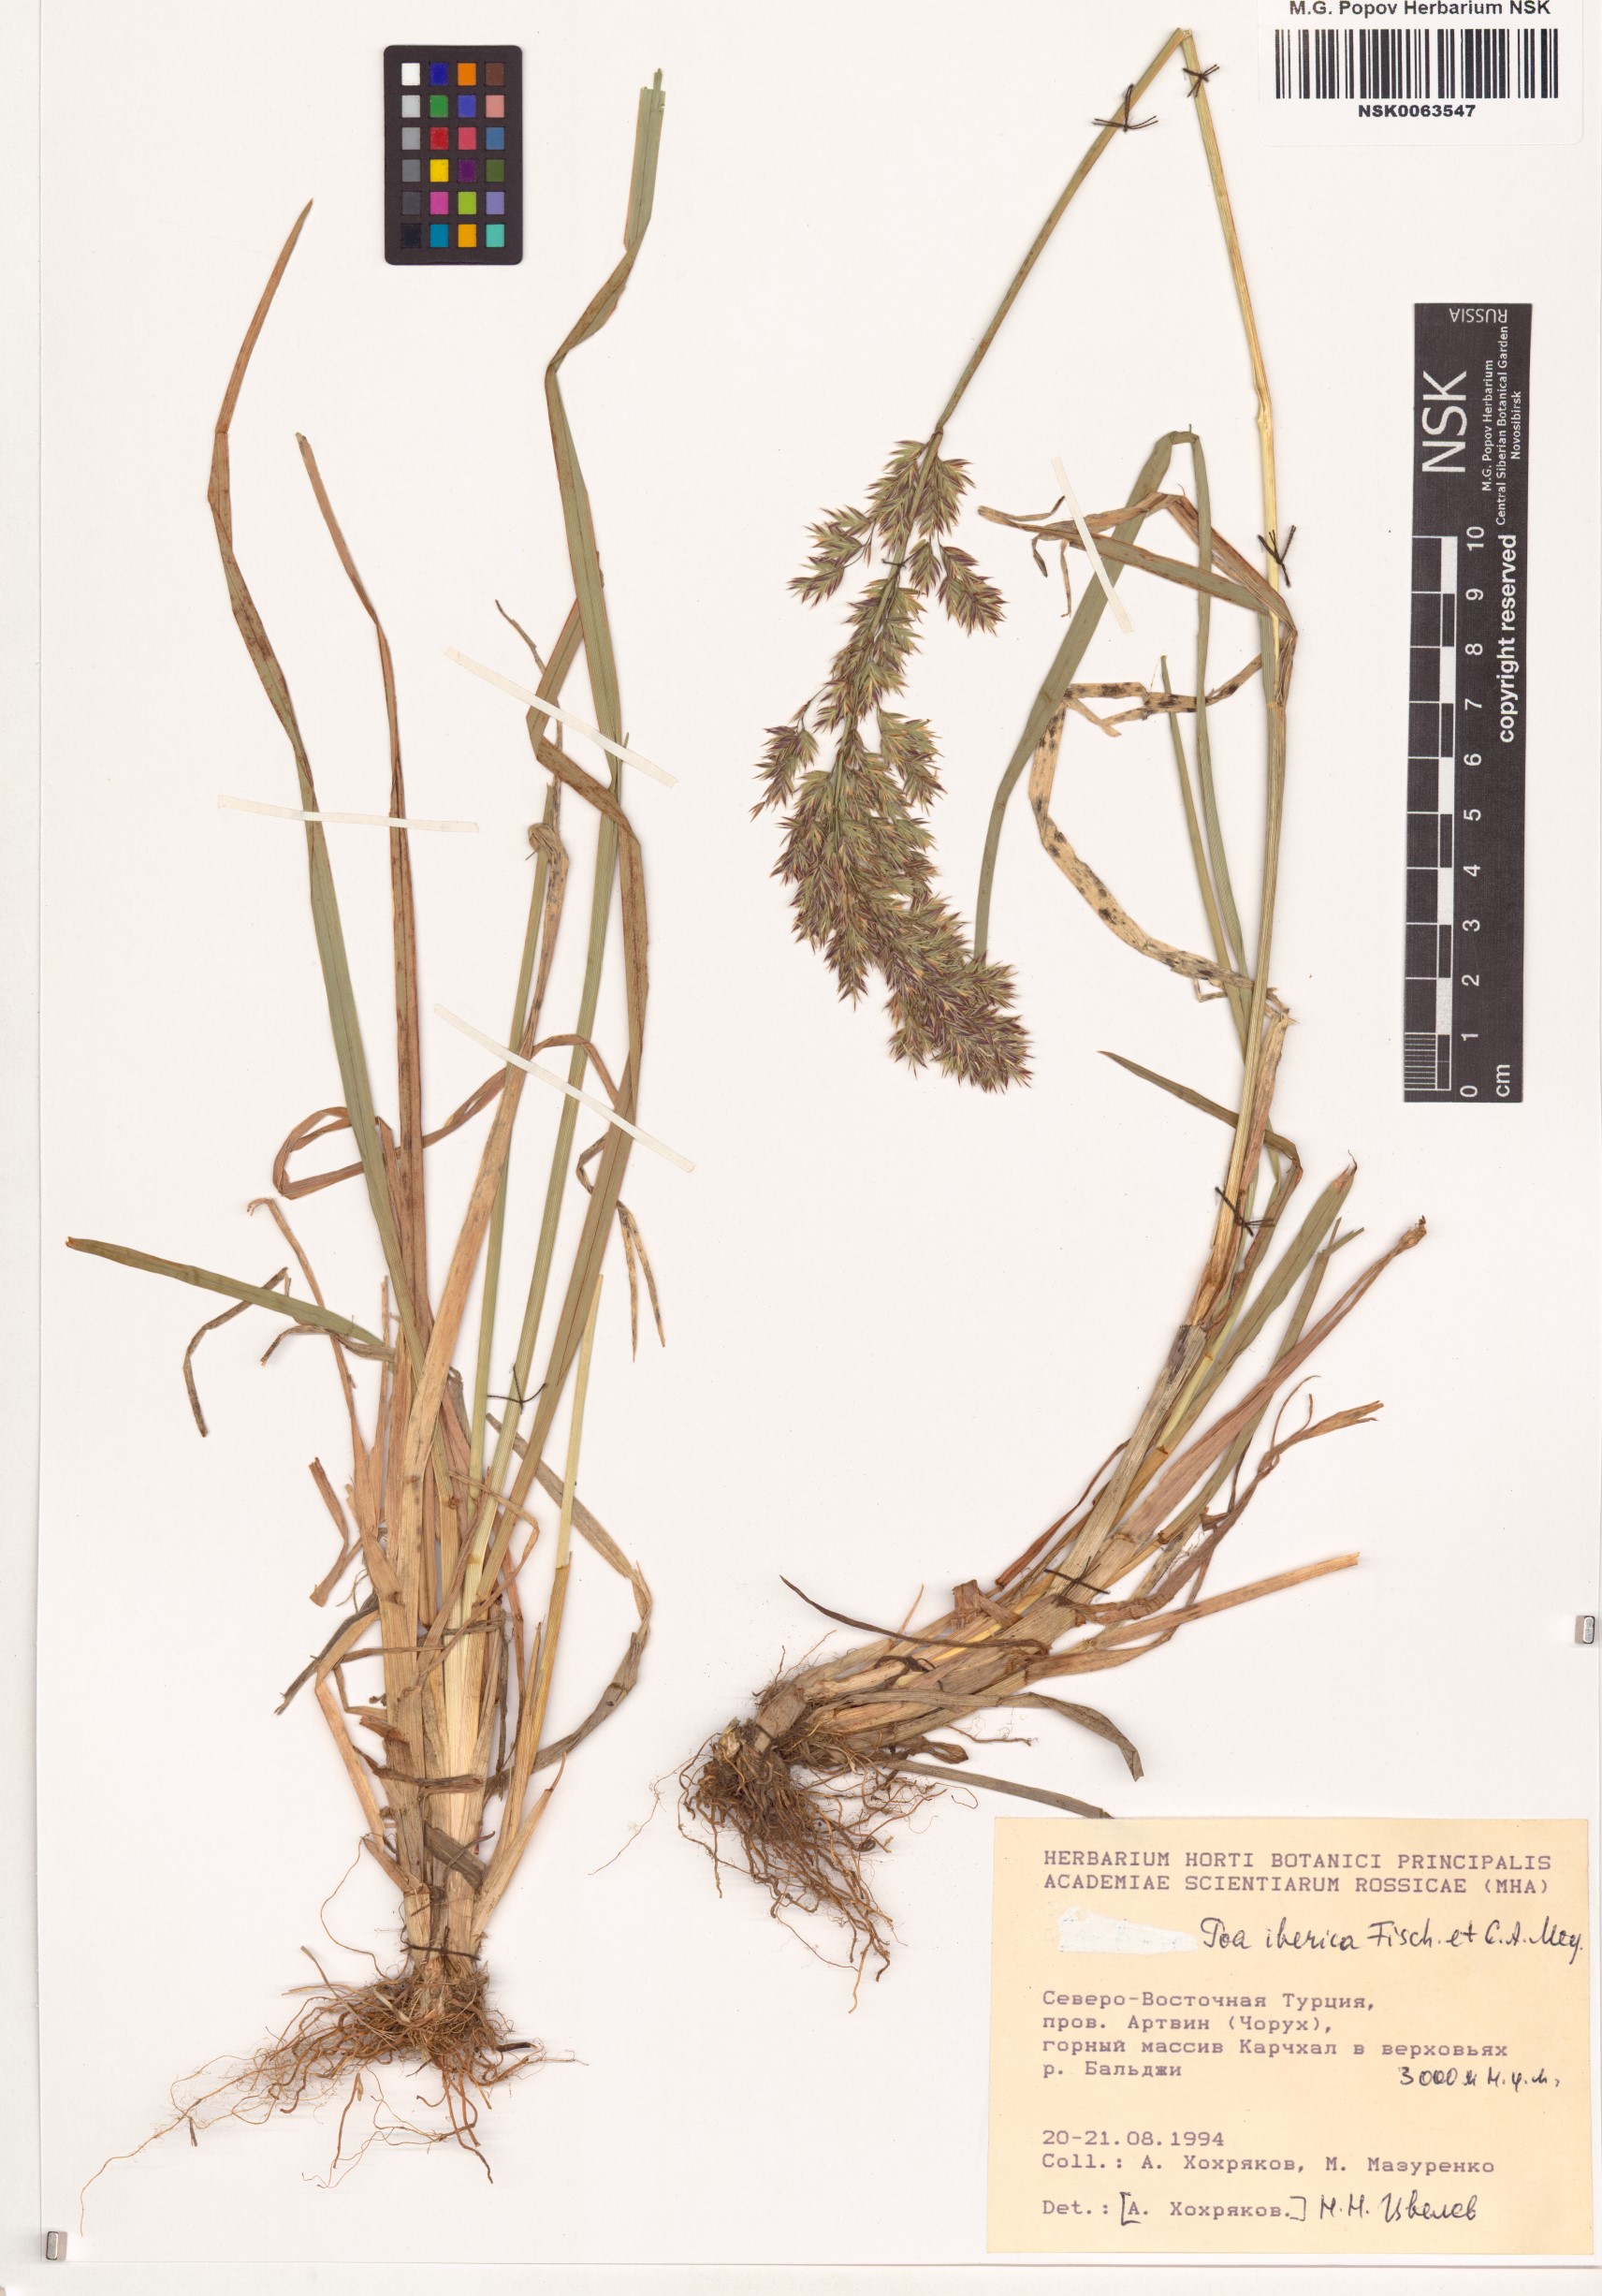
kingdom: Plantae
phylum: Tracheophyta
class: Liliopsida
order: Poales
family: Poaceae
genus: Poa
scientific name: Poa iberica
